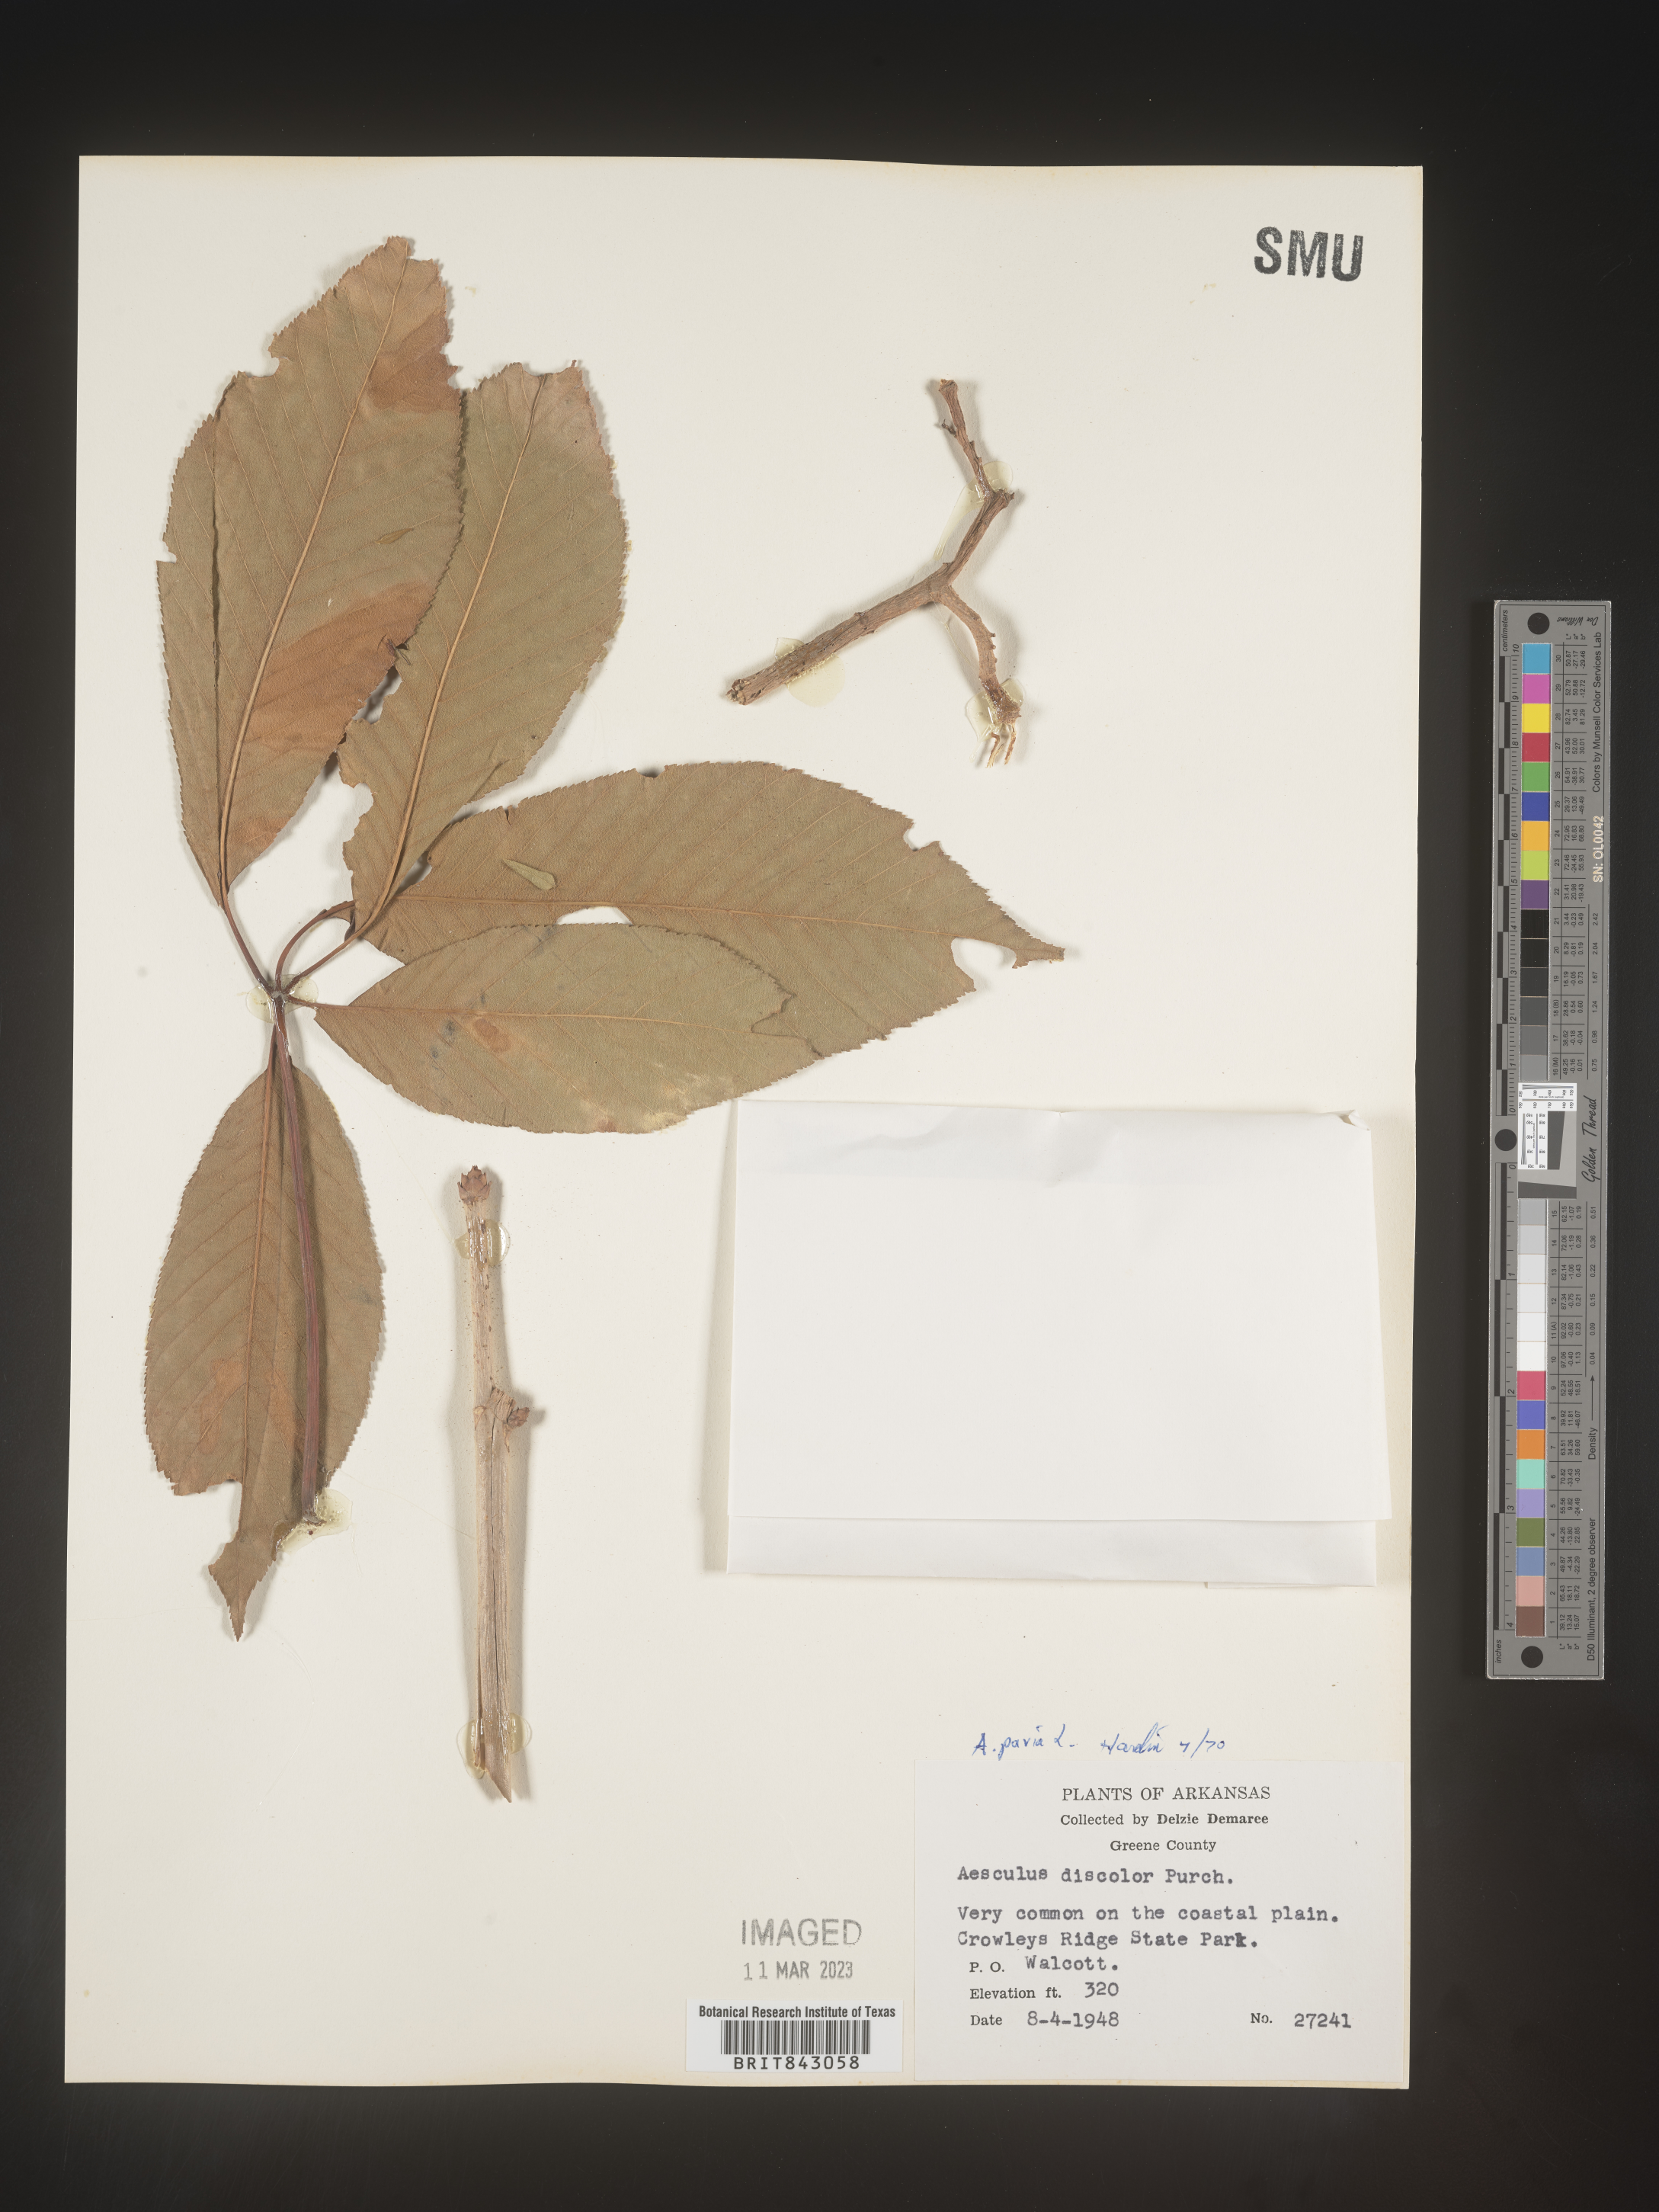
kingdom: Plantae
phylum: Tracheophyta
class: Magnoliopsida
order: Sapindales
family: Sapindaceae
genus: Aesculus
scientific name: Aesculus pavia
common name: Red buckeye
